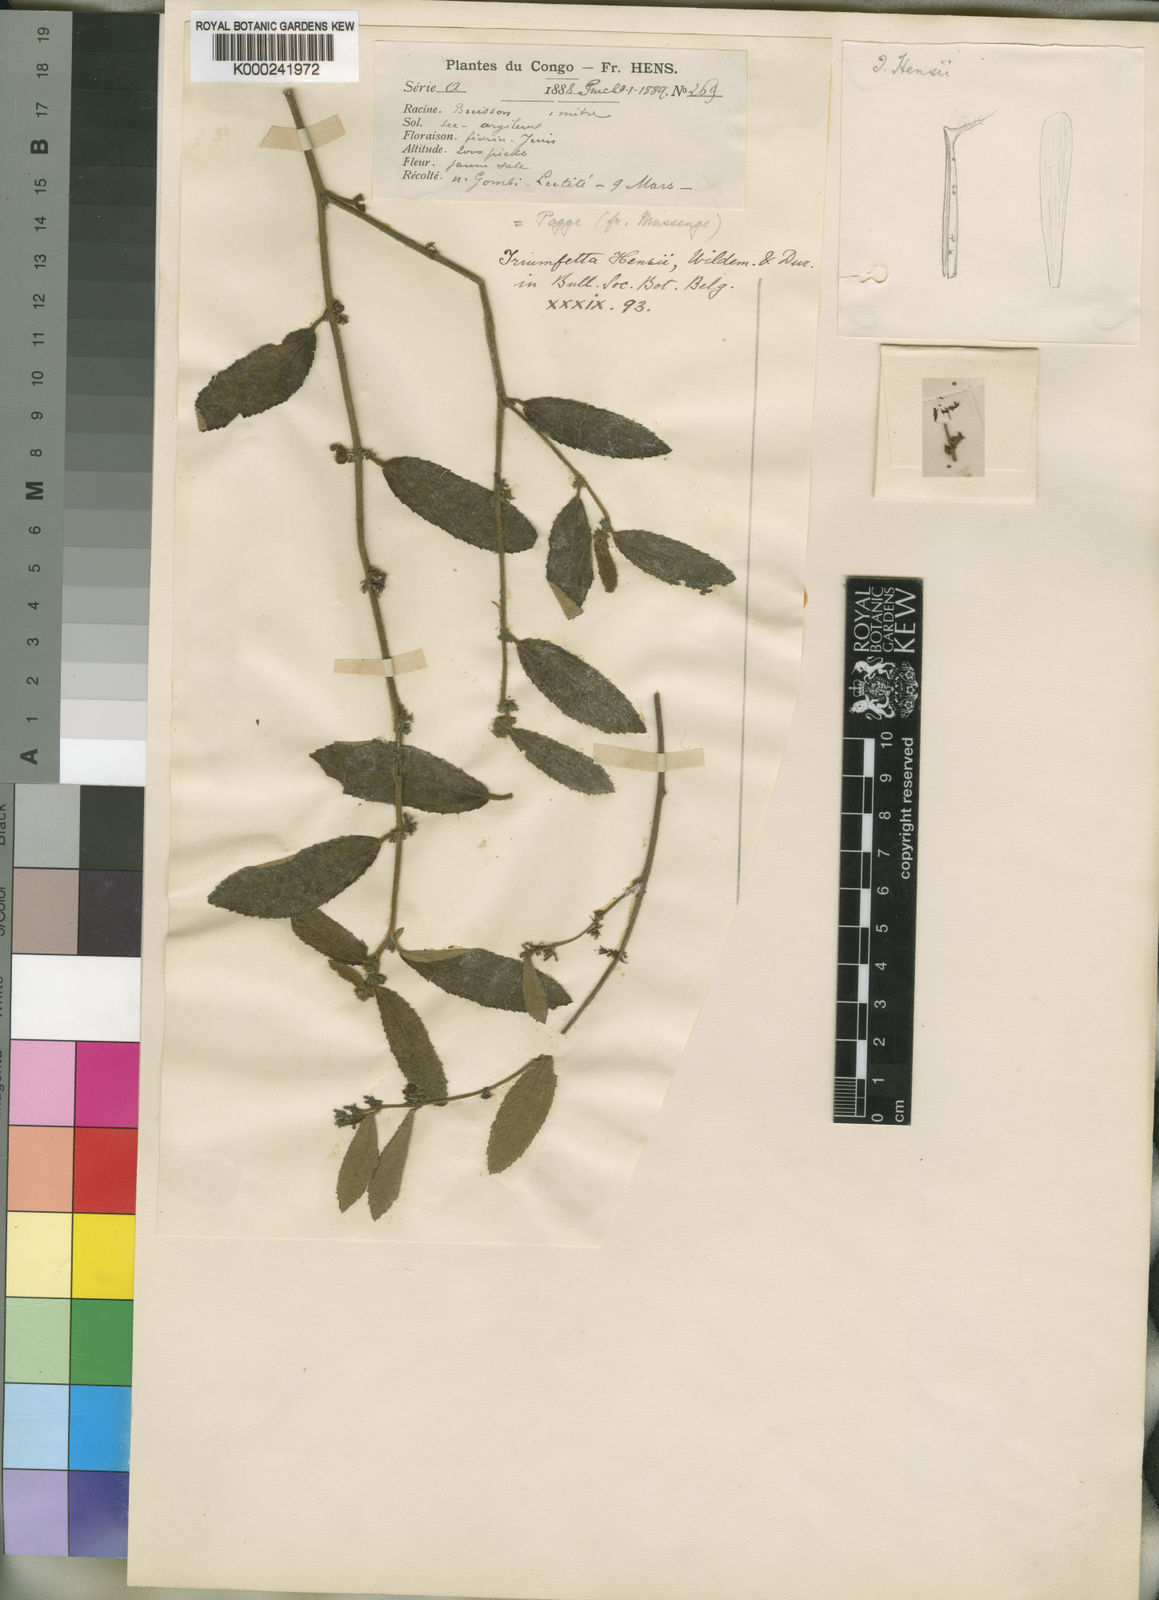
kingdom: Plantae
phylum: Tracheophyta
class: Magnoliopsida
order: Malvales
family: Malvaceae
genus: Triumfetta
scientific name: Triumfetta setulosa
